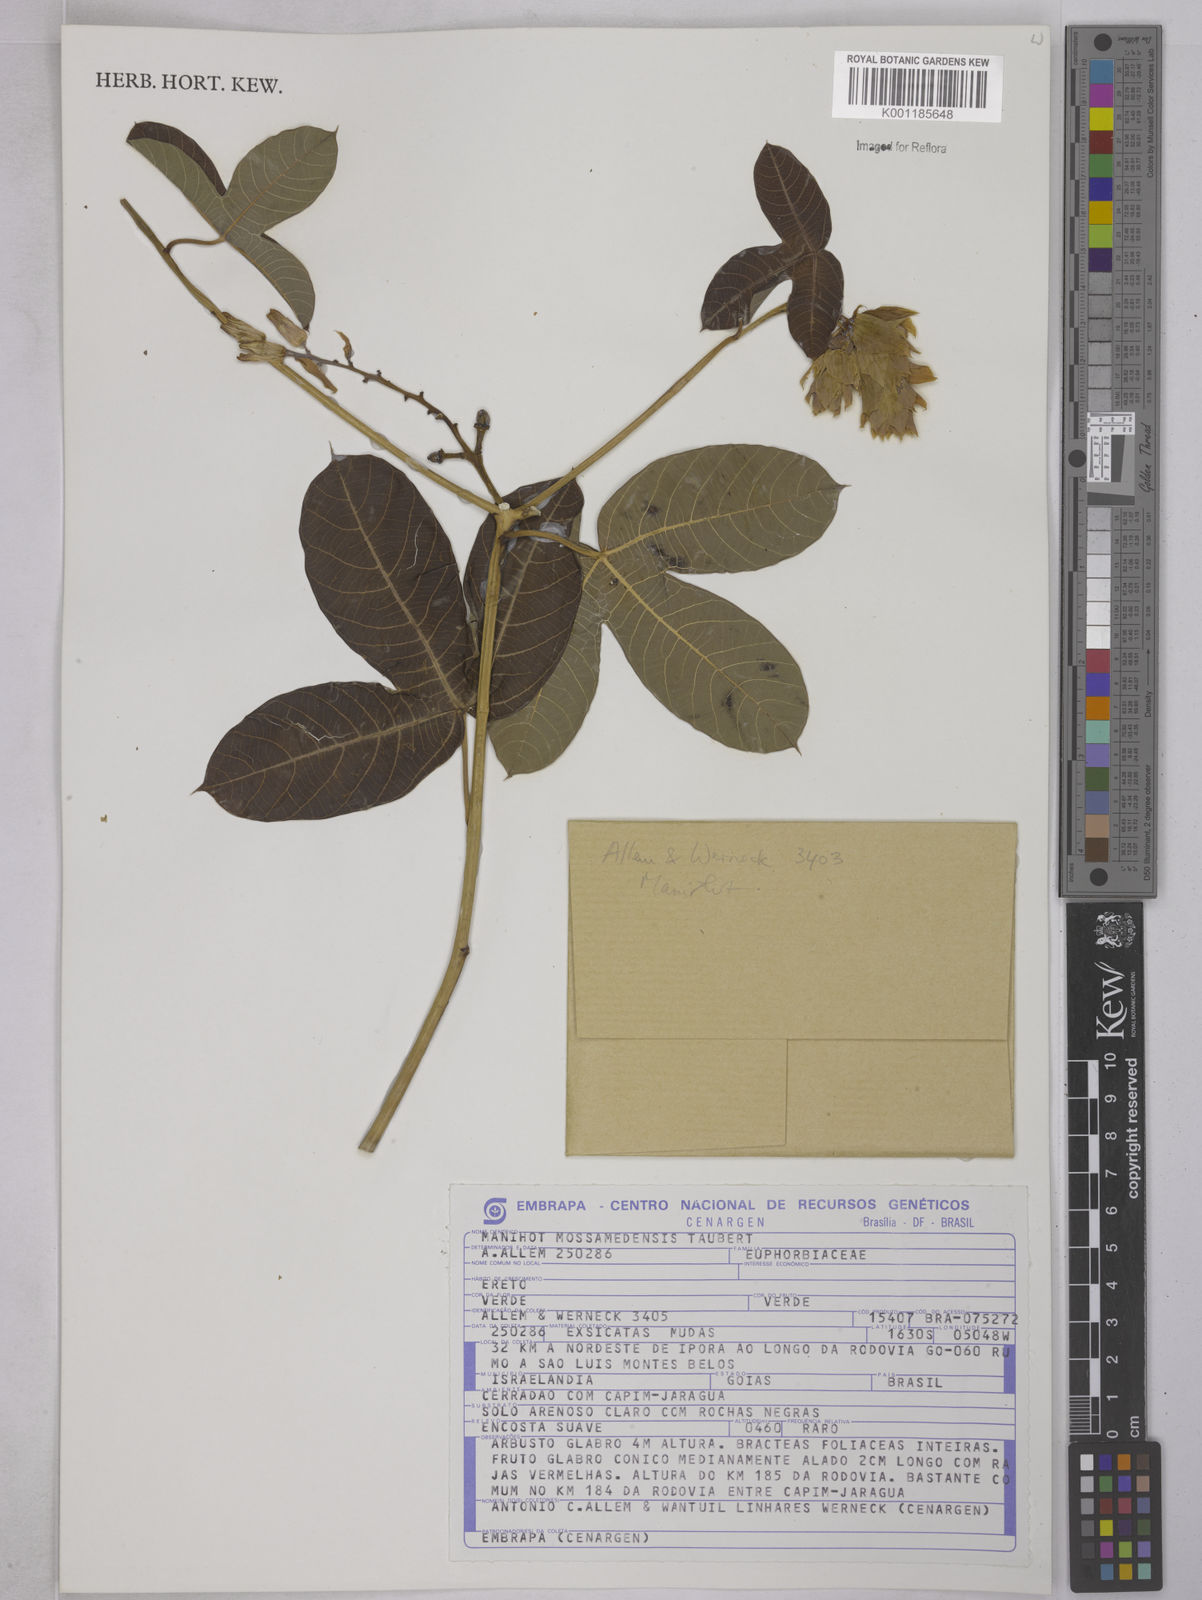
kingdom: Plantae
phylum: Tracheophyta
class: Magnoliopsida
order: Malpighiales
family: Euphorbiaceae
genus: Manihot
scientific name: Manihot mossamedensis
